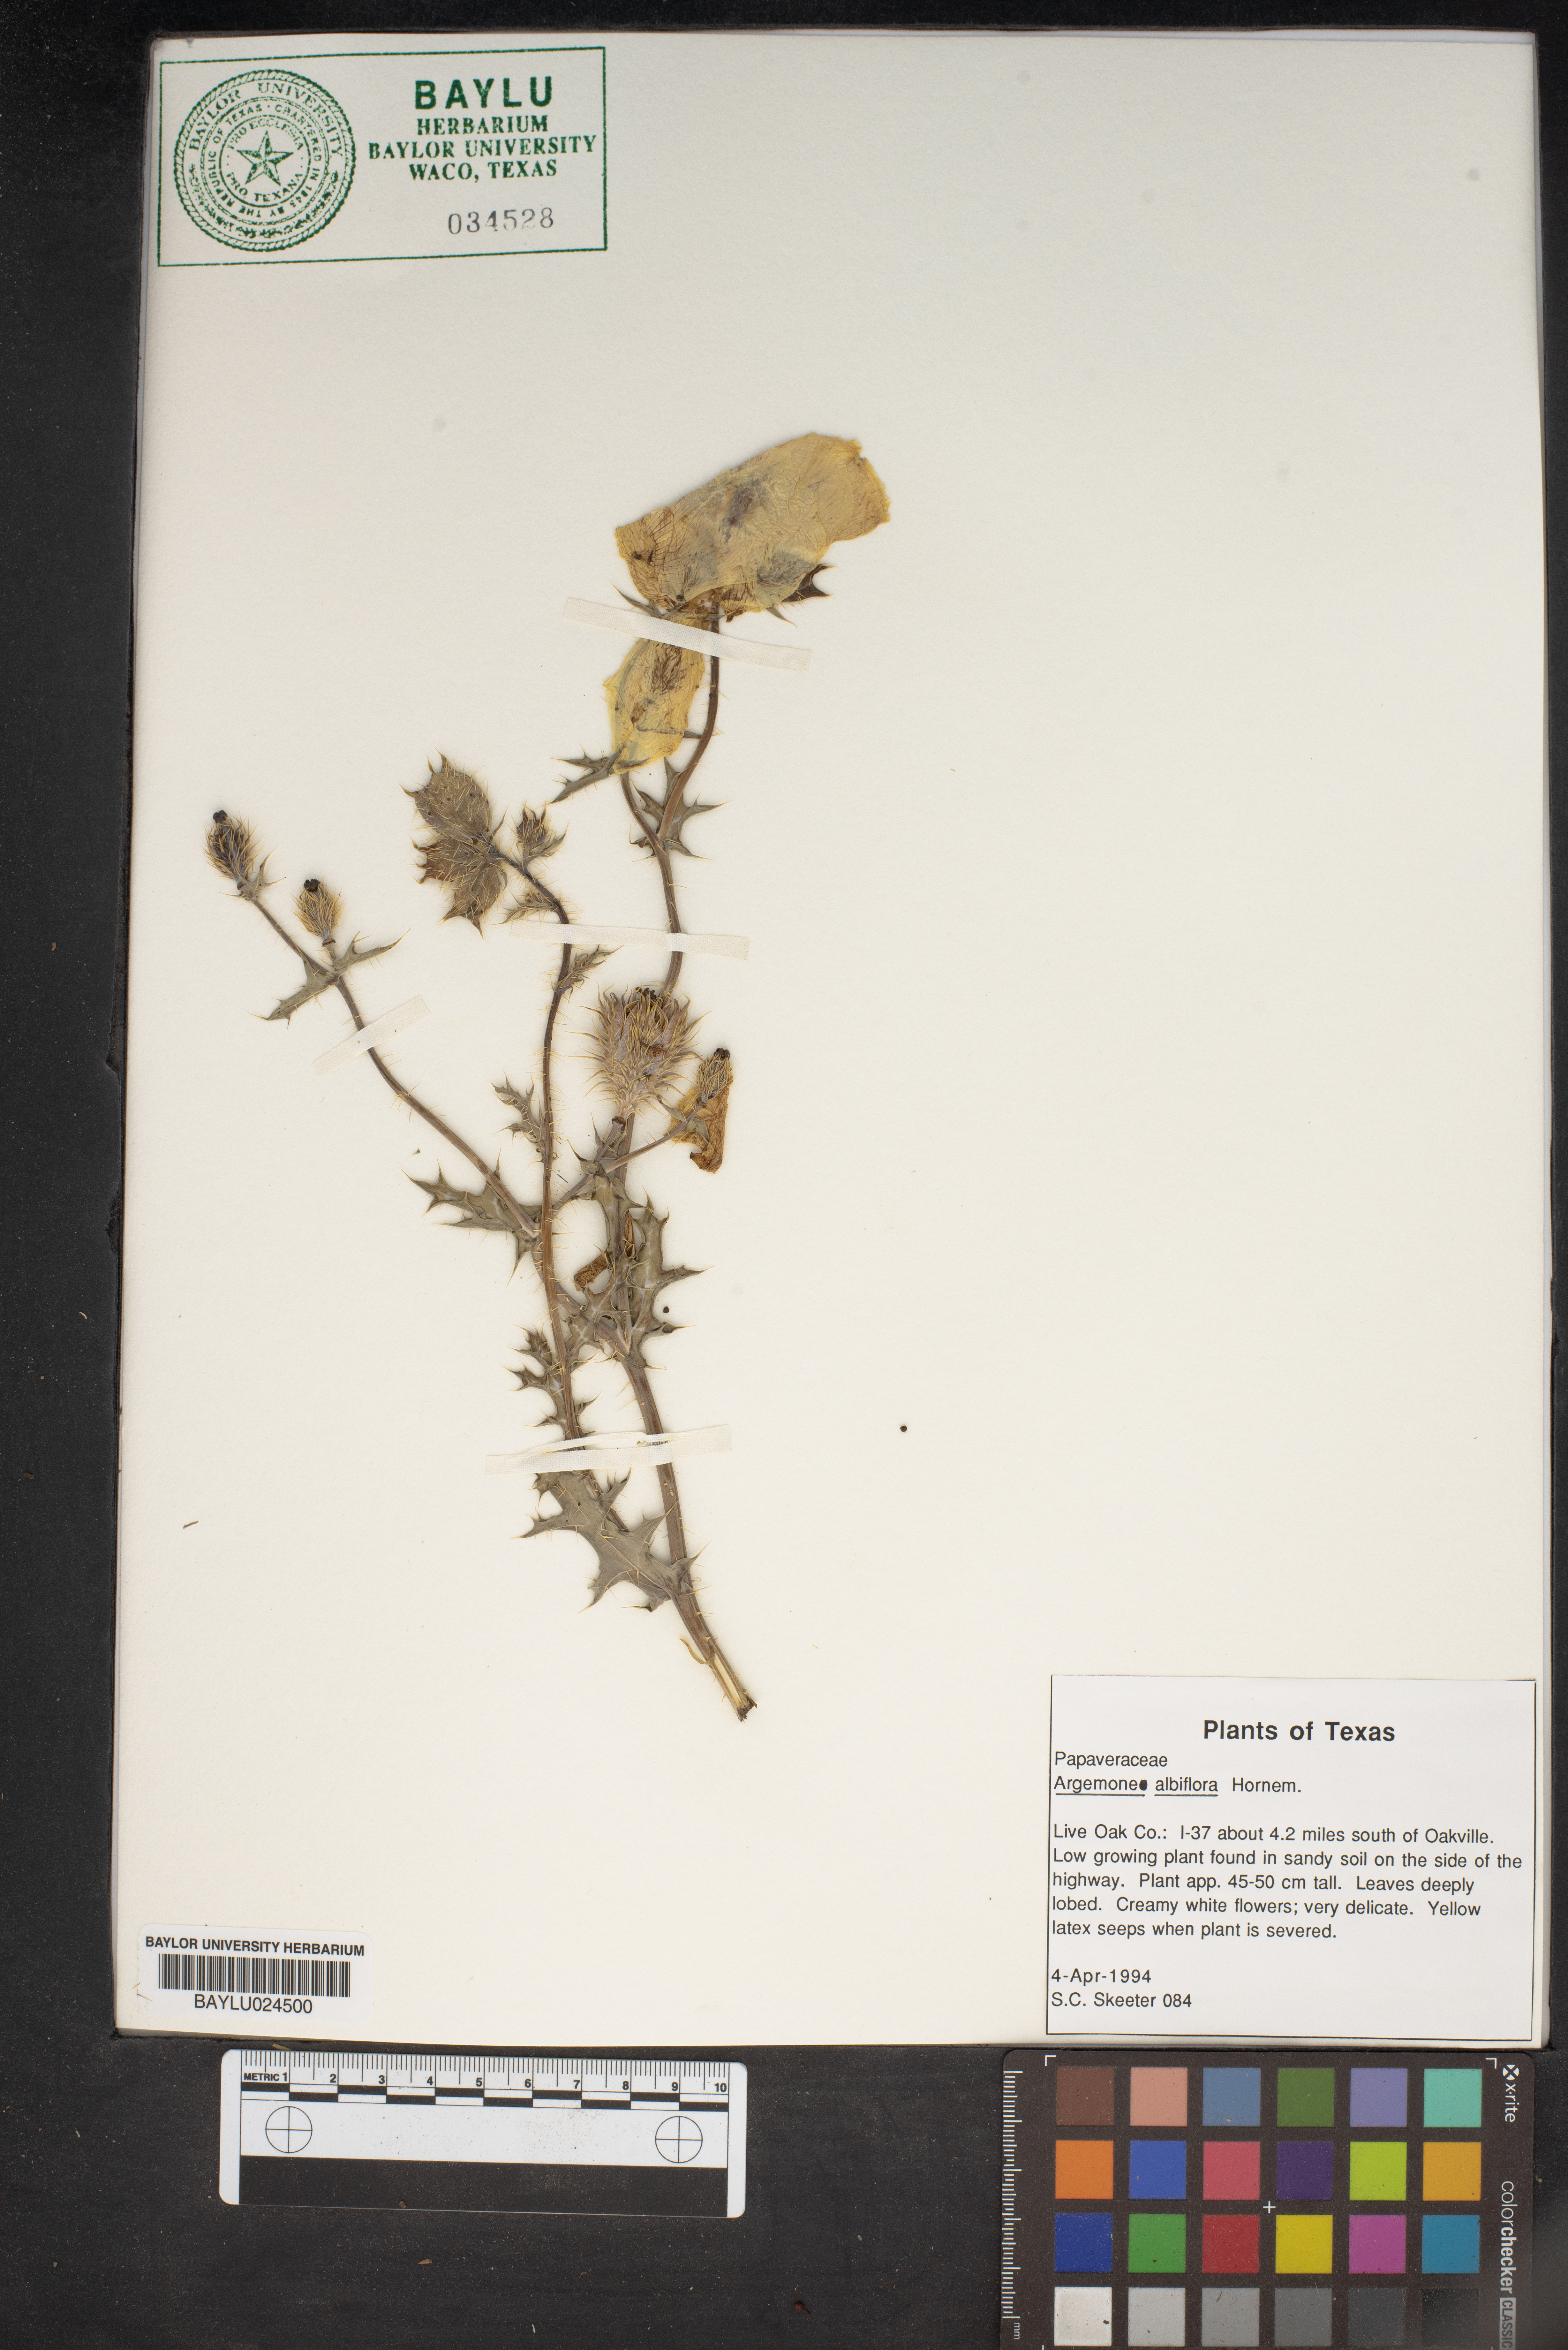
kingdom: Plantae
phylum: Tracheophyta
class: Magnoliopsida
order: Ranunculales
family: Papaveraceae
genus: Argemone
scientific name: Argemone albiflora
